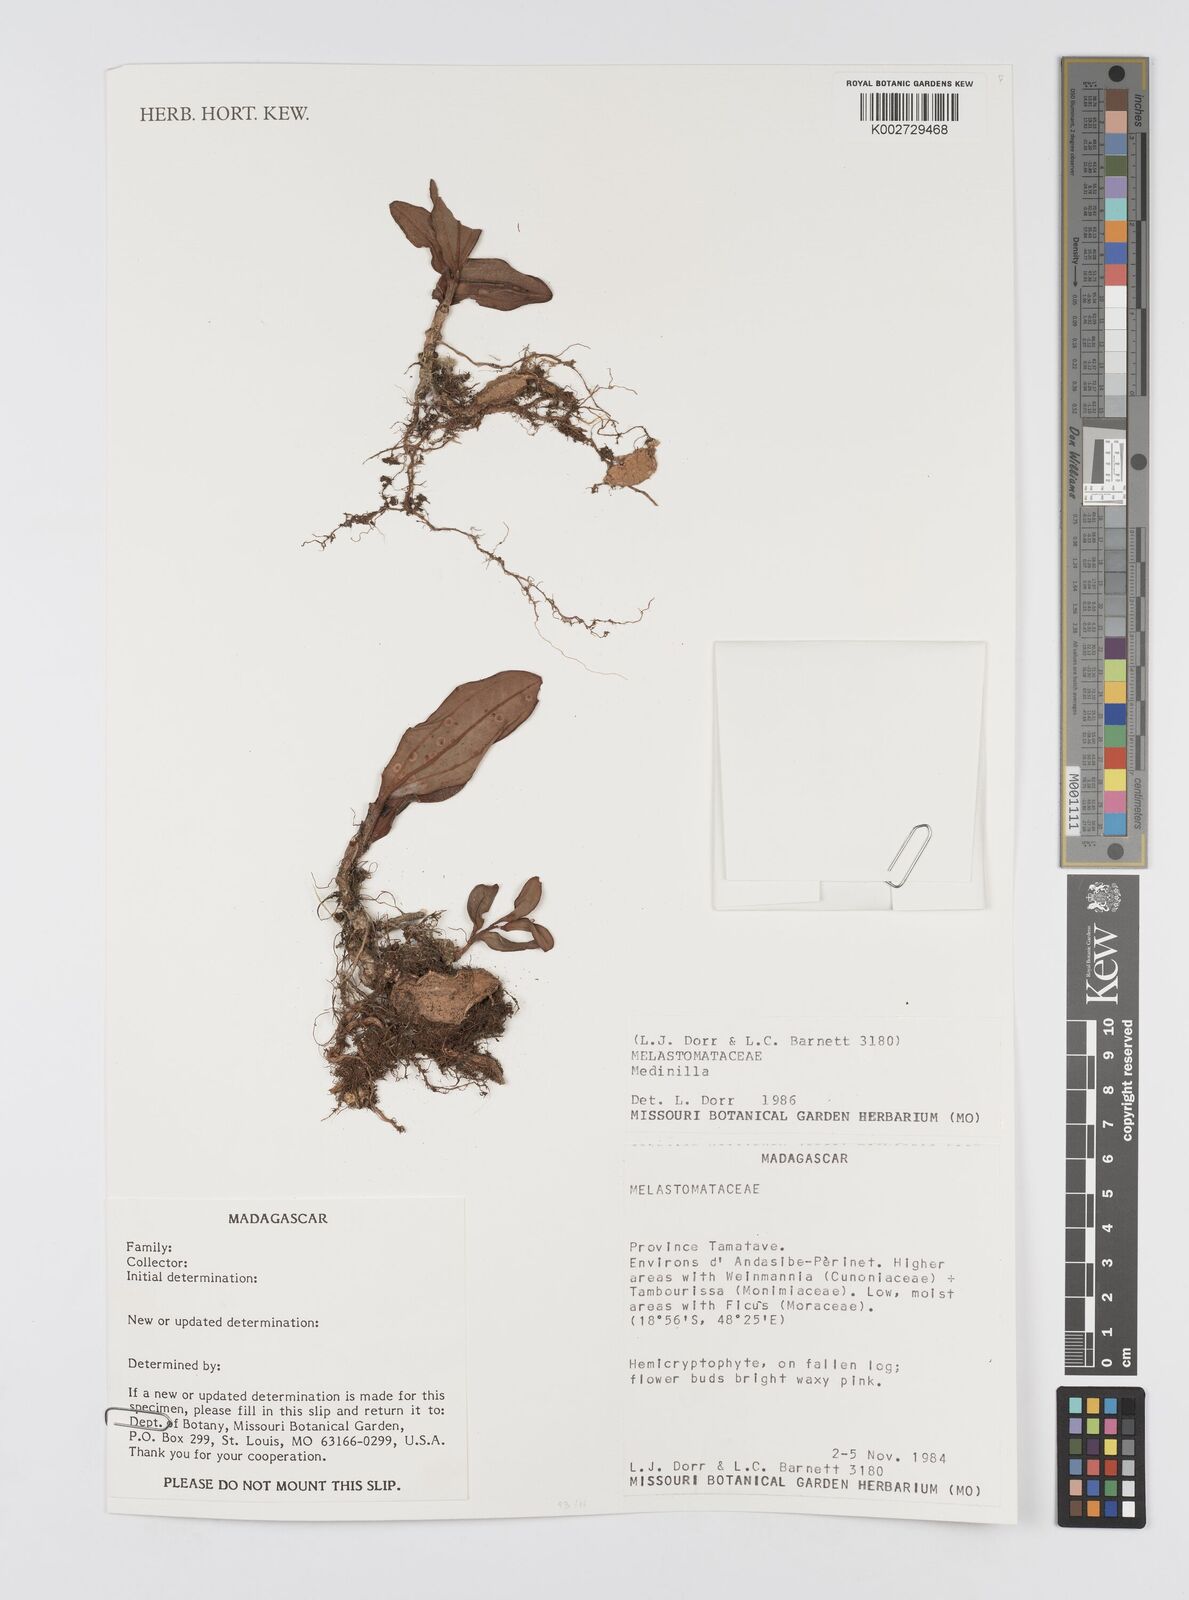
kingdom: Plantae
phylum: Tracheophyta
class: Magnoliopsida
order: Myrtales
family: Melastomataceae
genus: Medinilla
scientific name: Medinilla
